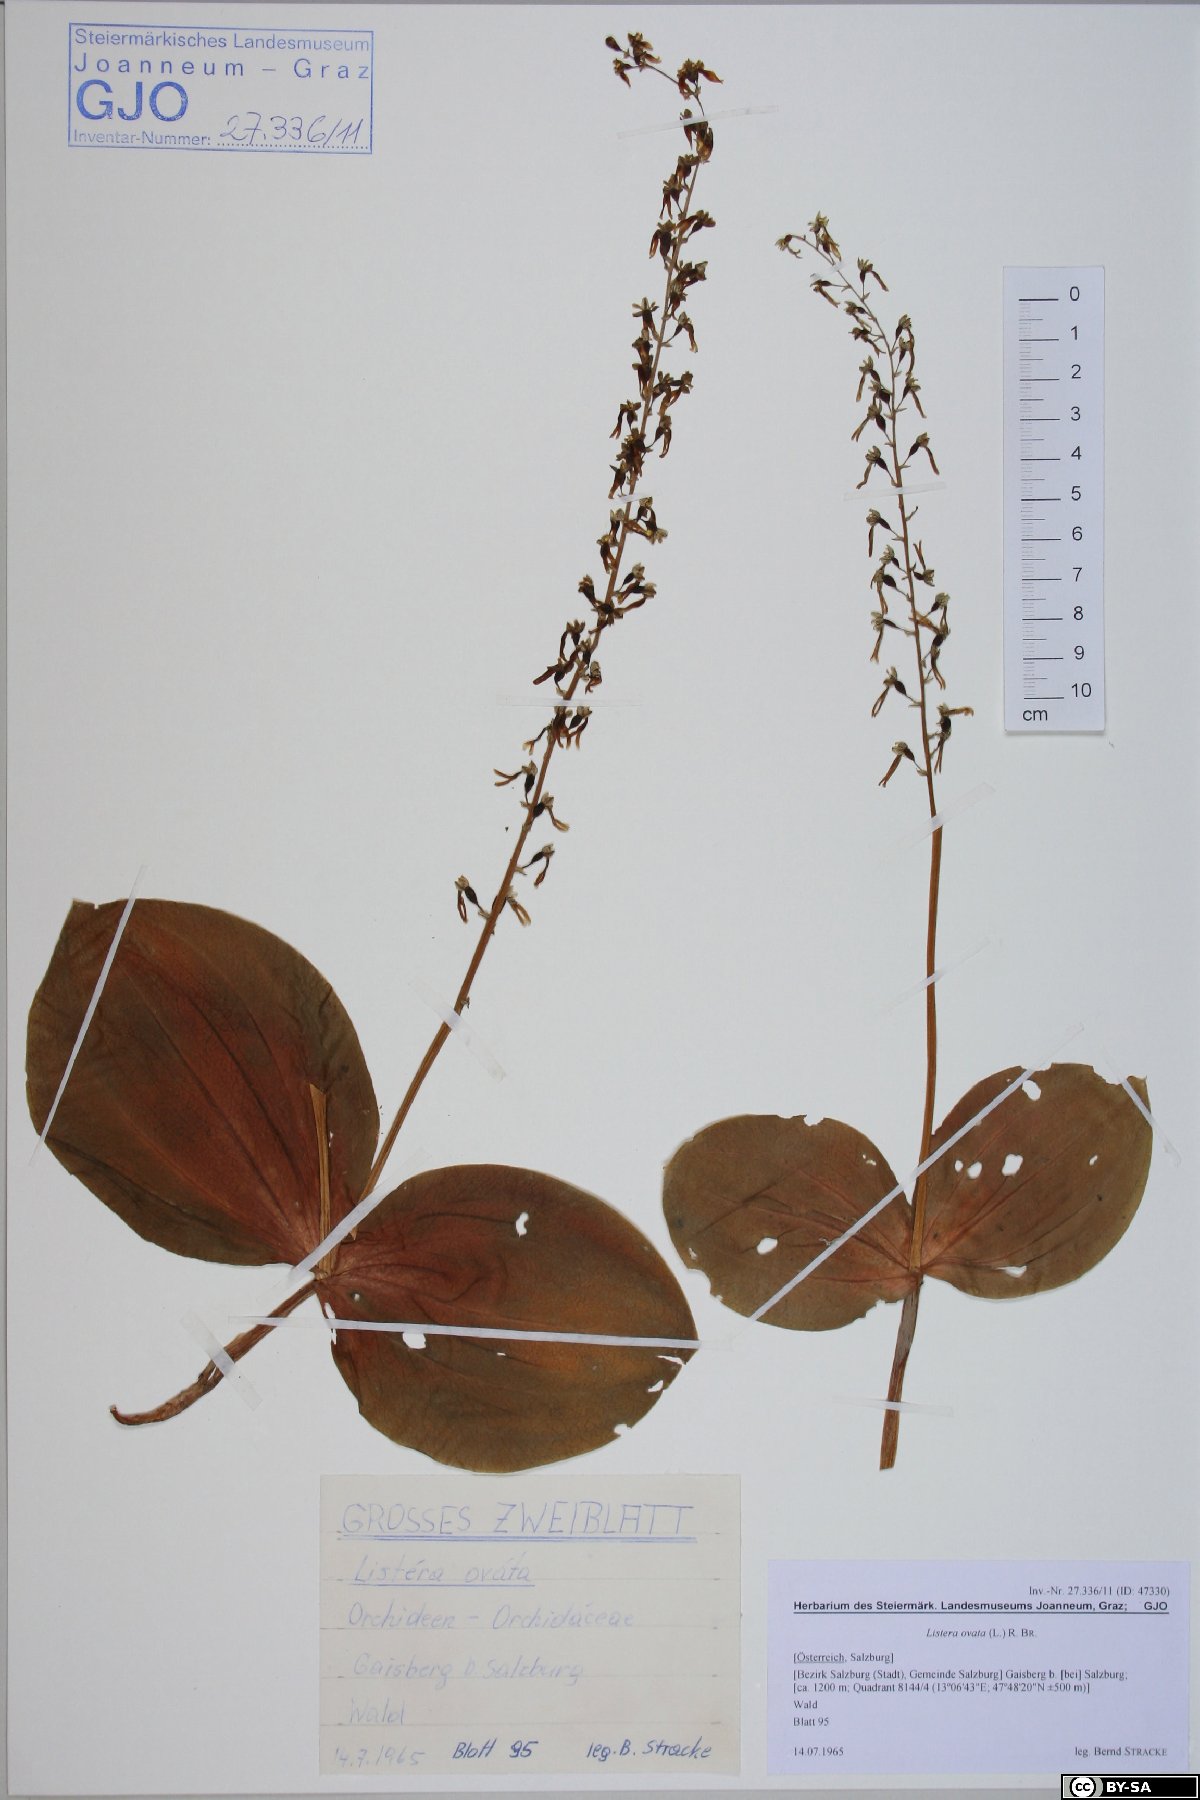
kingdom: Plantae
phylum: Tracheophyta
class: Liliopsida
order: Asparagales
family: Orchidaceae
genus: Neottia
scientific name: Neottia ovata
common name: Common twayblade
